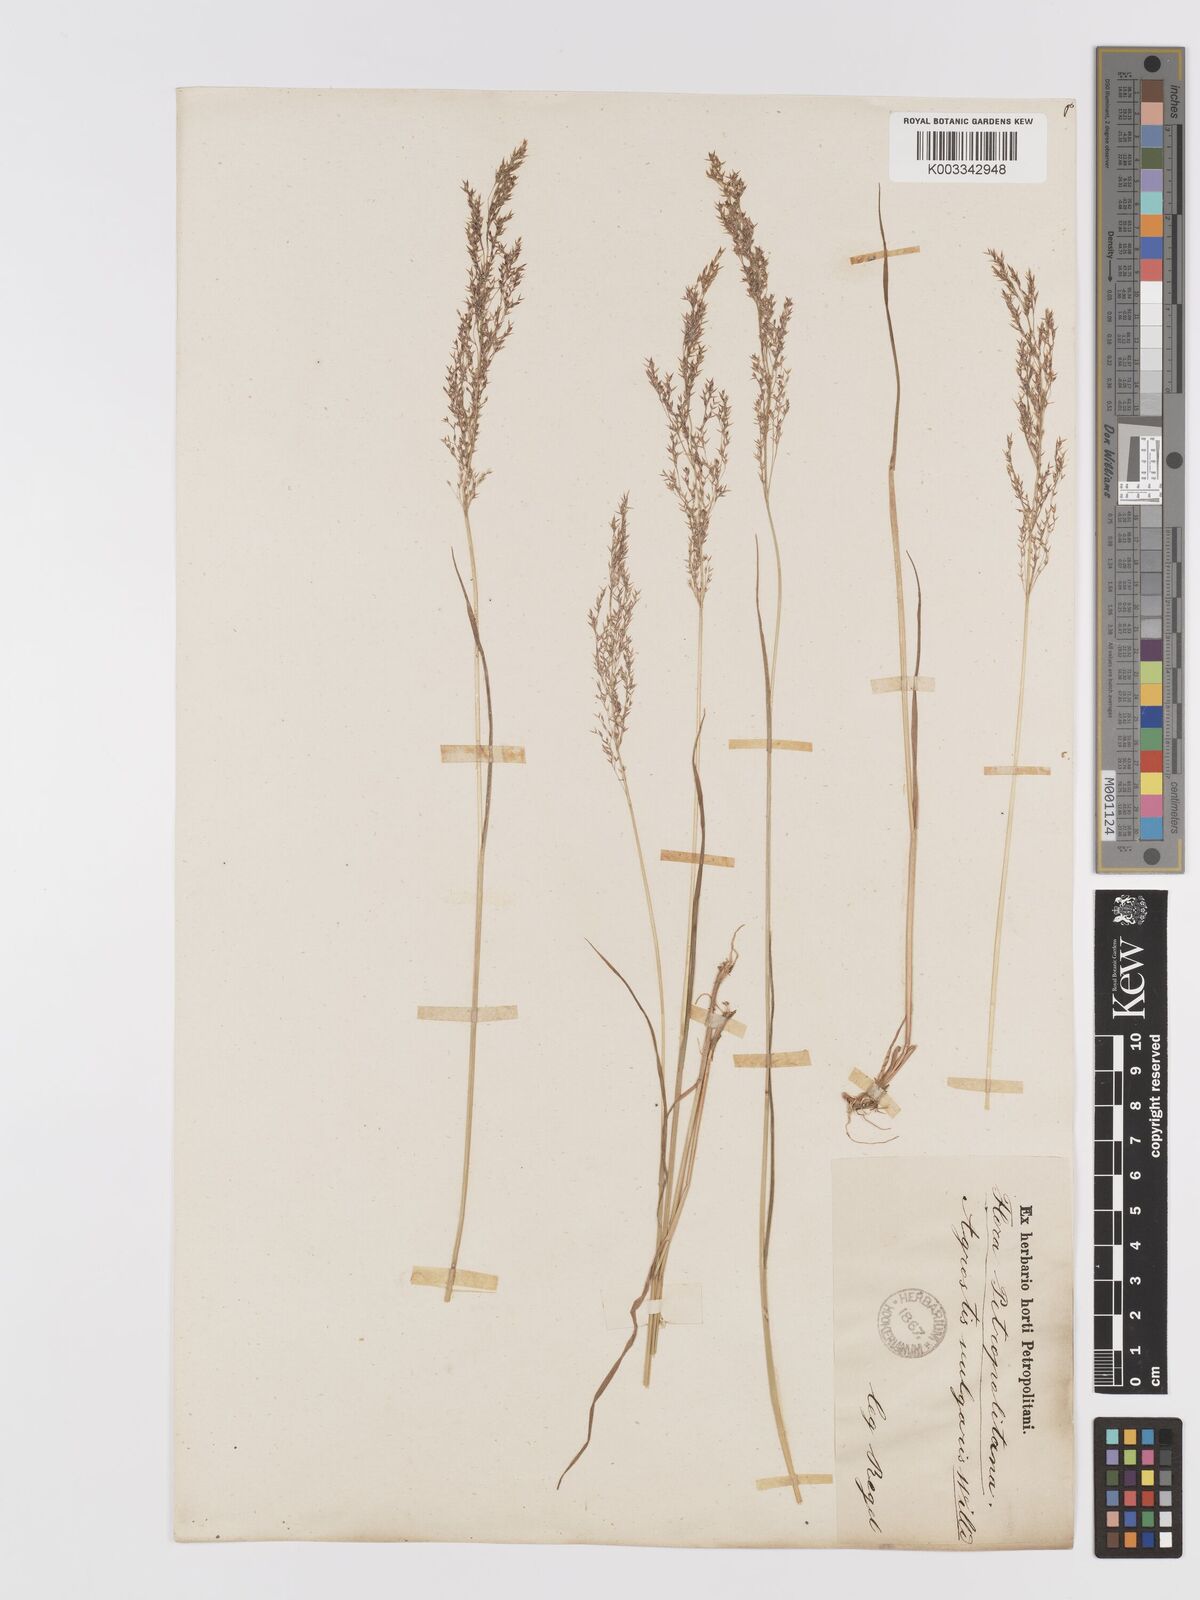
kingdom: Plantae
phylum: Tracheophyta
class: Liliopsida
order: Poales
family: Poaceae
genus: Agrostis
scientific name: Agrostis capillaris
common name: Colonial bentgrass
